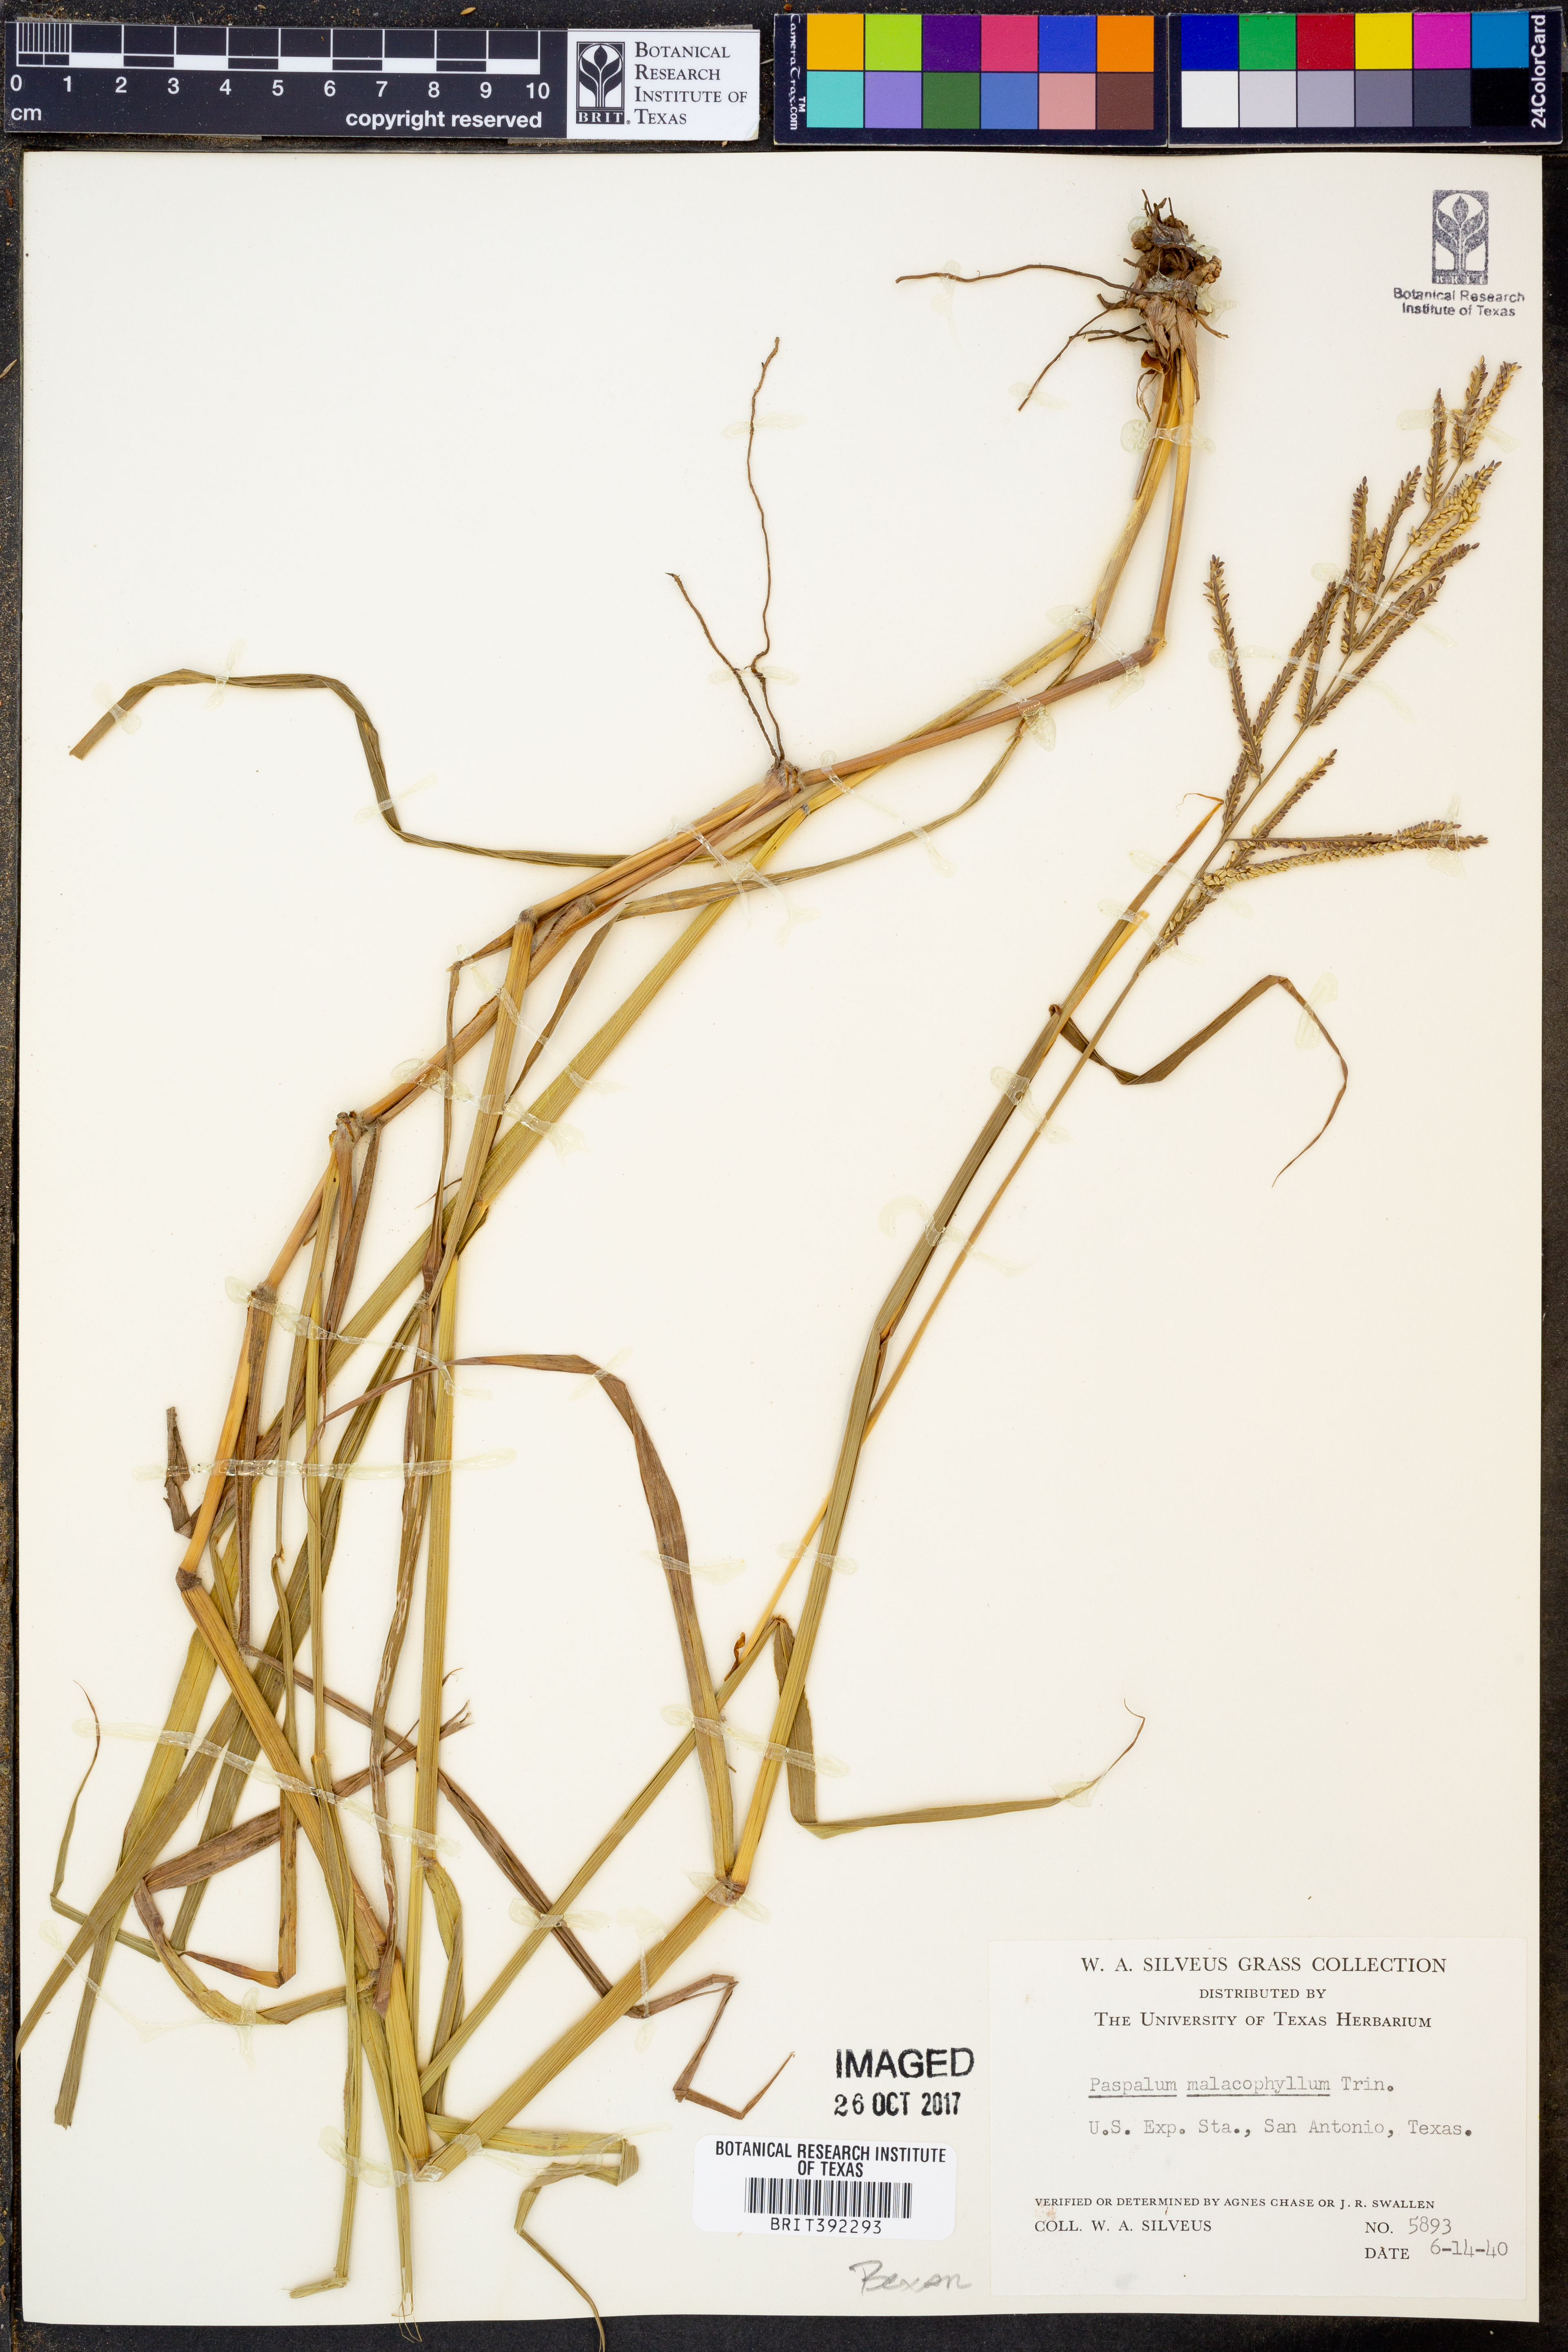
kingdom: Plantae
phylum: Tracheophyta
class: Liliopsida
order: Poales
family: Poaceae
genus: Paspalum
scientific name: Paspalum malacophyllum
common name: Ribbed paspalum
